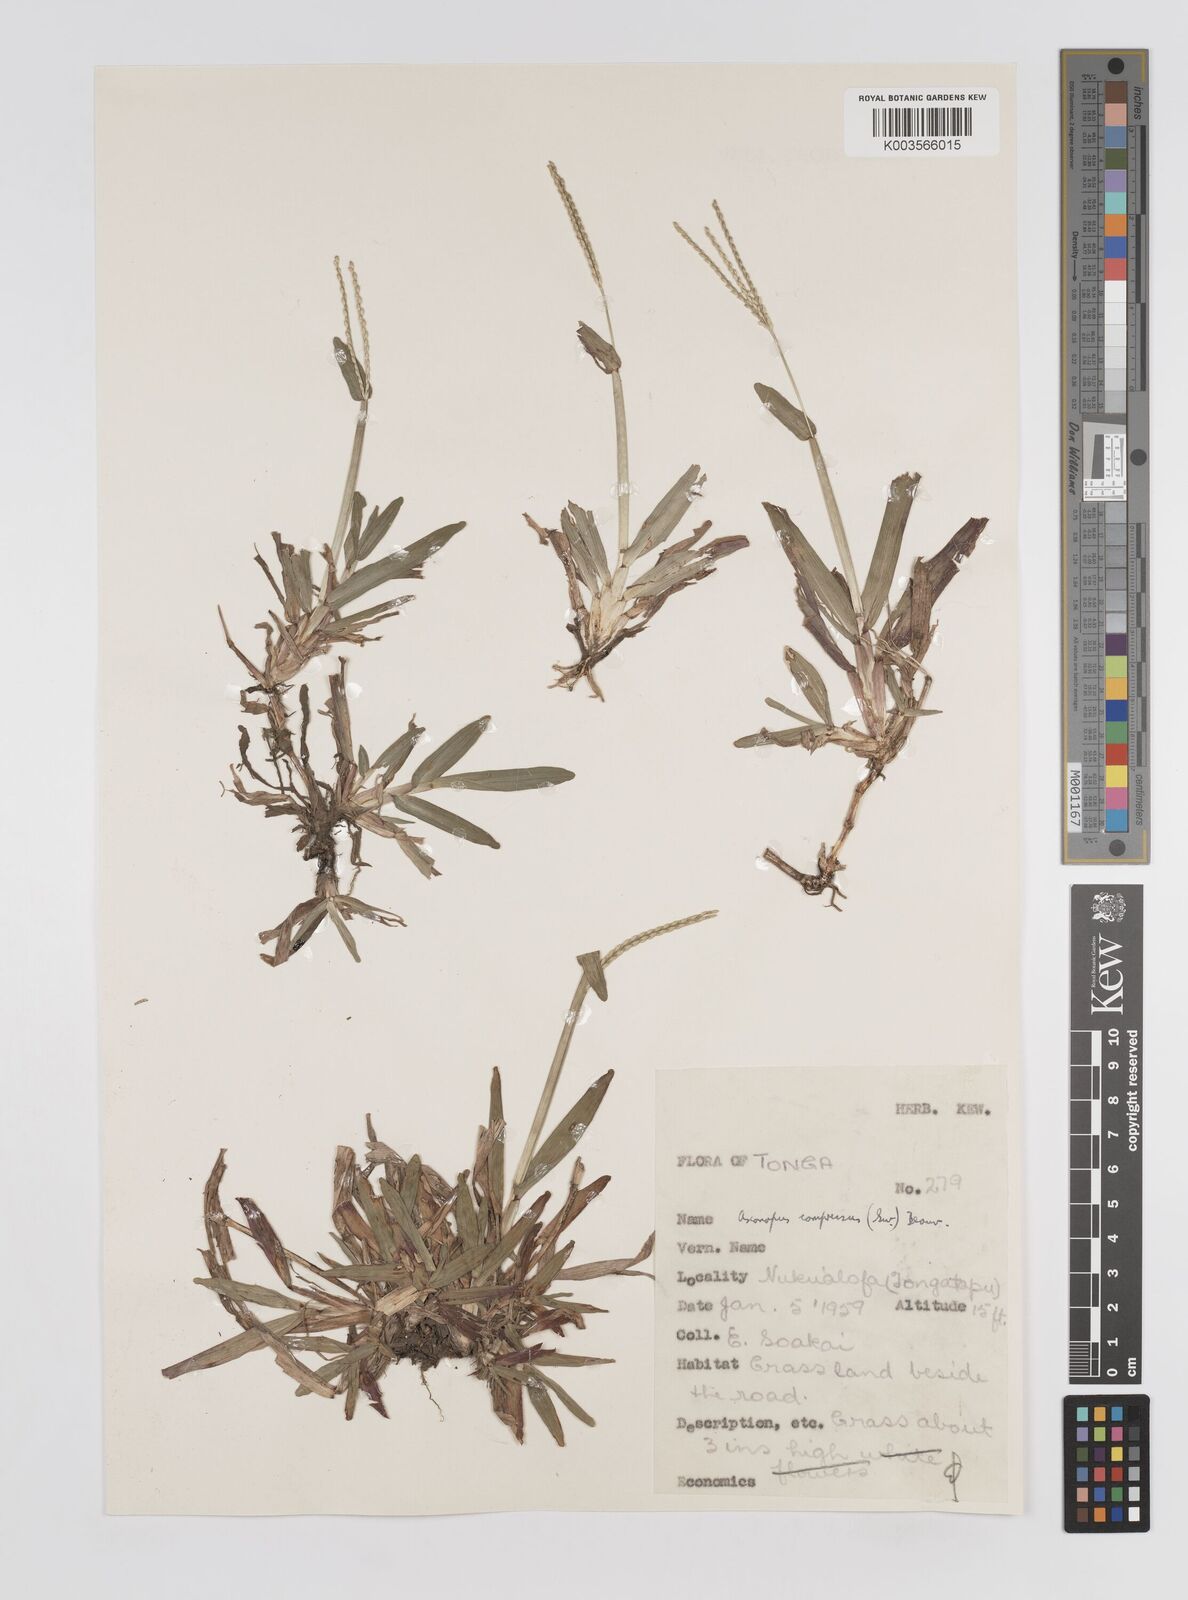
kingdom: Plantae
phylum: Tracheophyta
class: Liliopsida
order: Poales
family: Poaceae
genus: Axonopus
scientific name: Axonopus compressus
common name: American carpet grass
